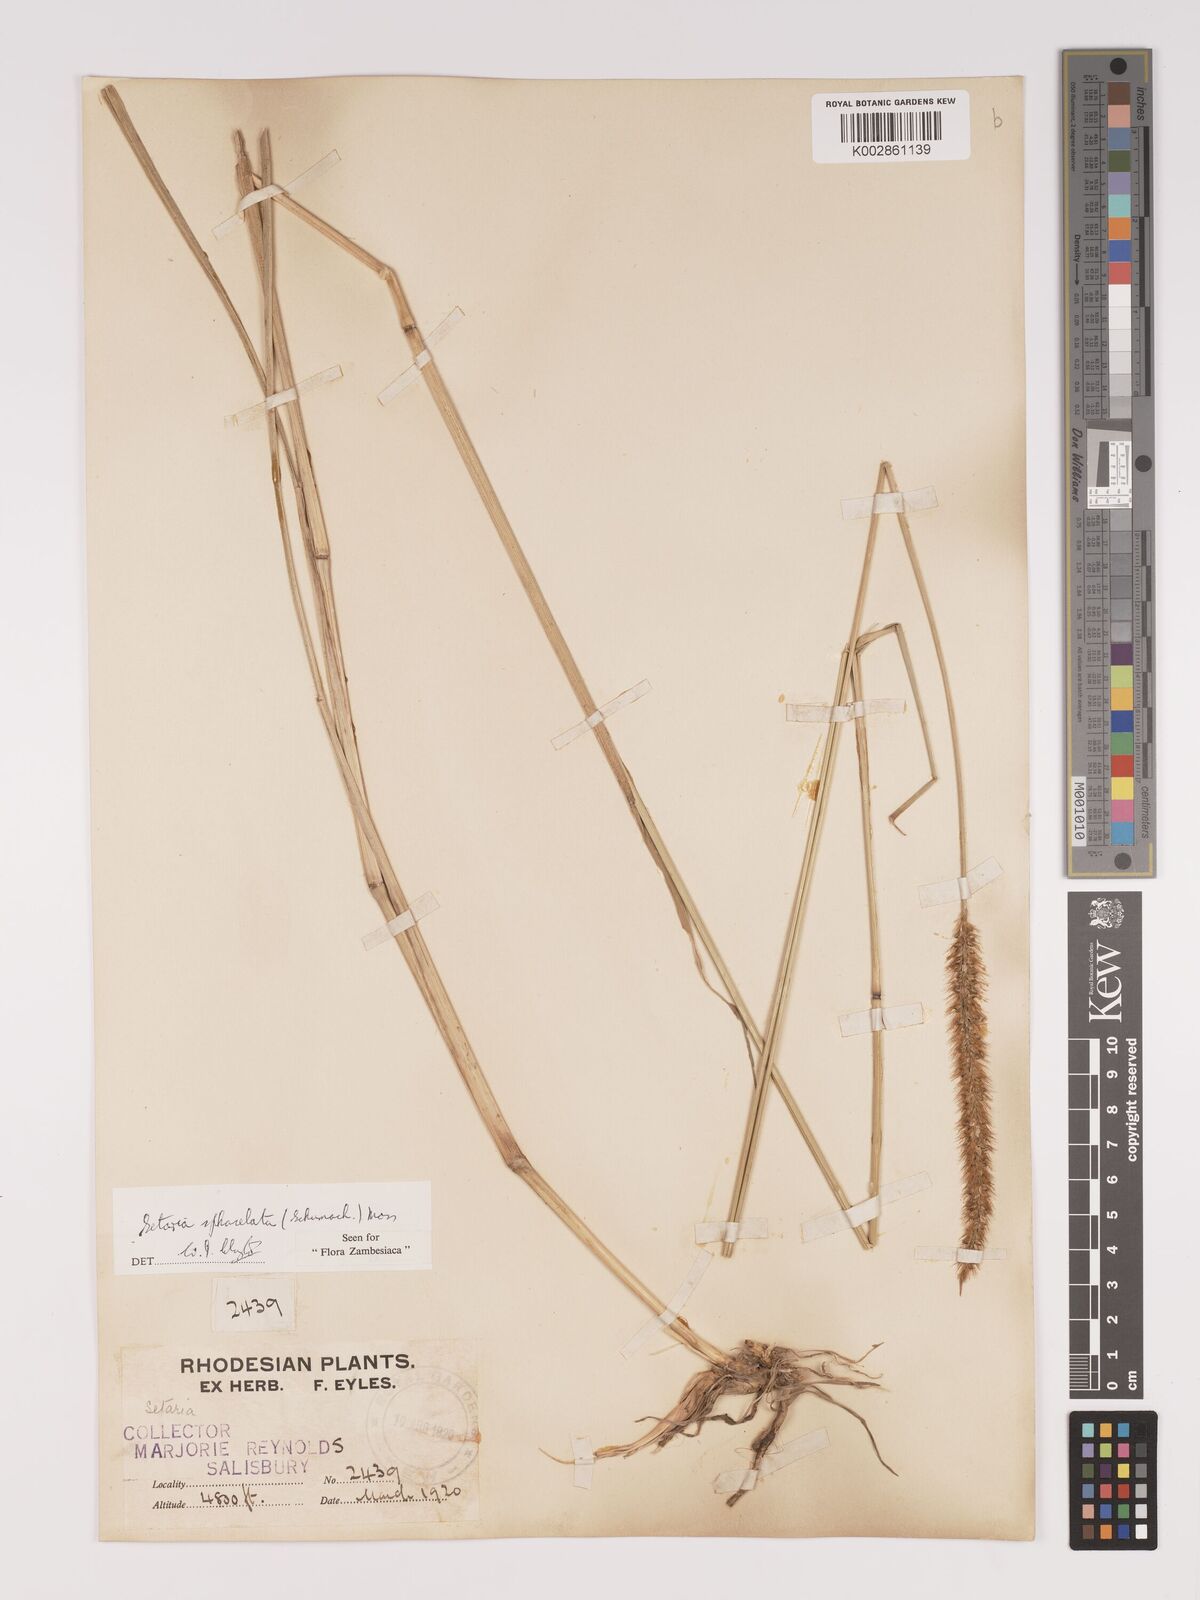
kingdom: Plantae
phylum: Tracheophyta
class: Liliopsida
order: Poales
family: Poaceae
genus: Setaria
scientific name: Setaria sphacelata
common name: African bristlegrass
